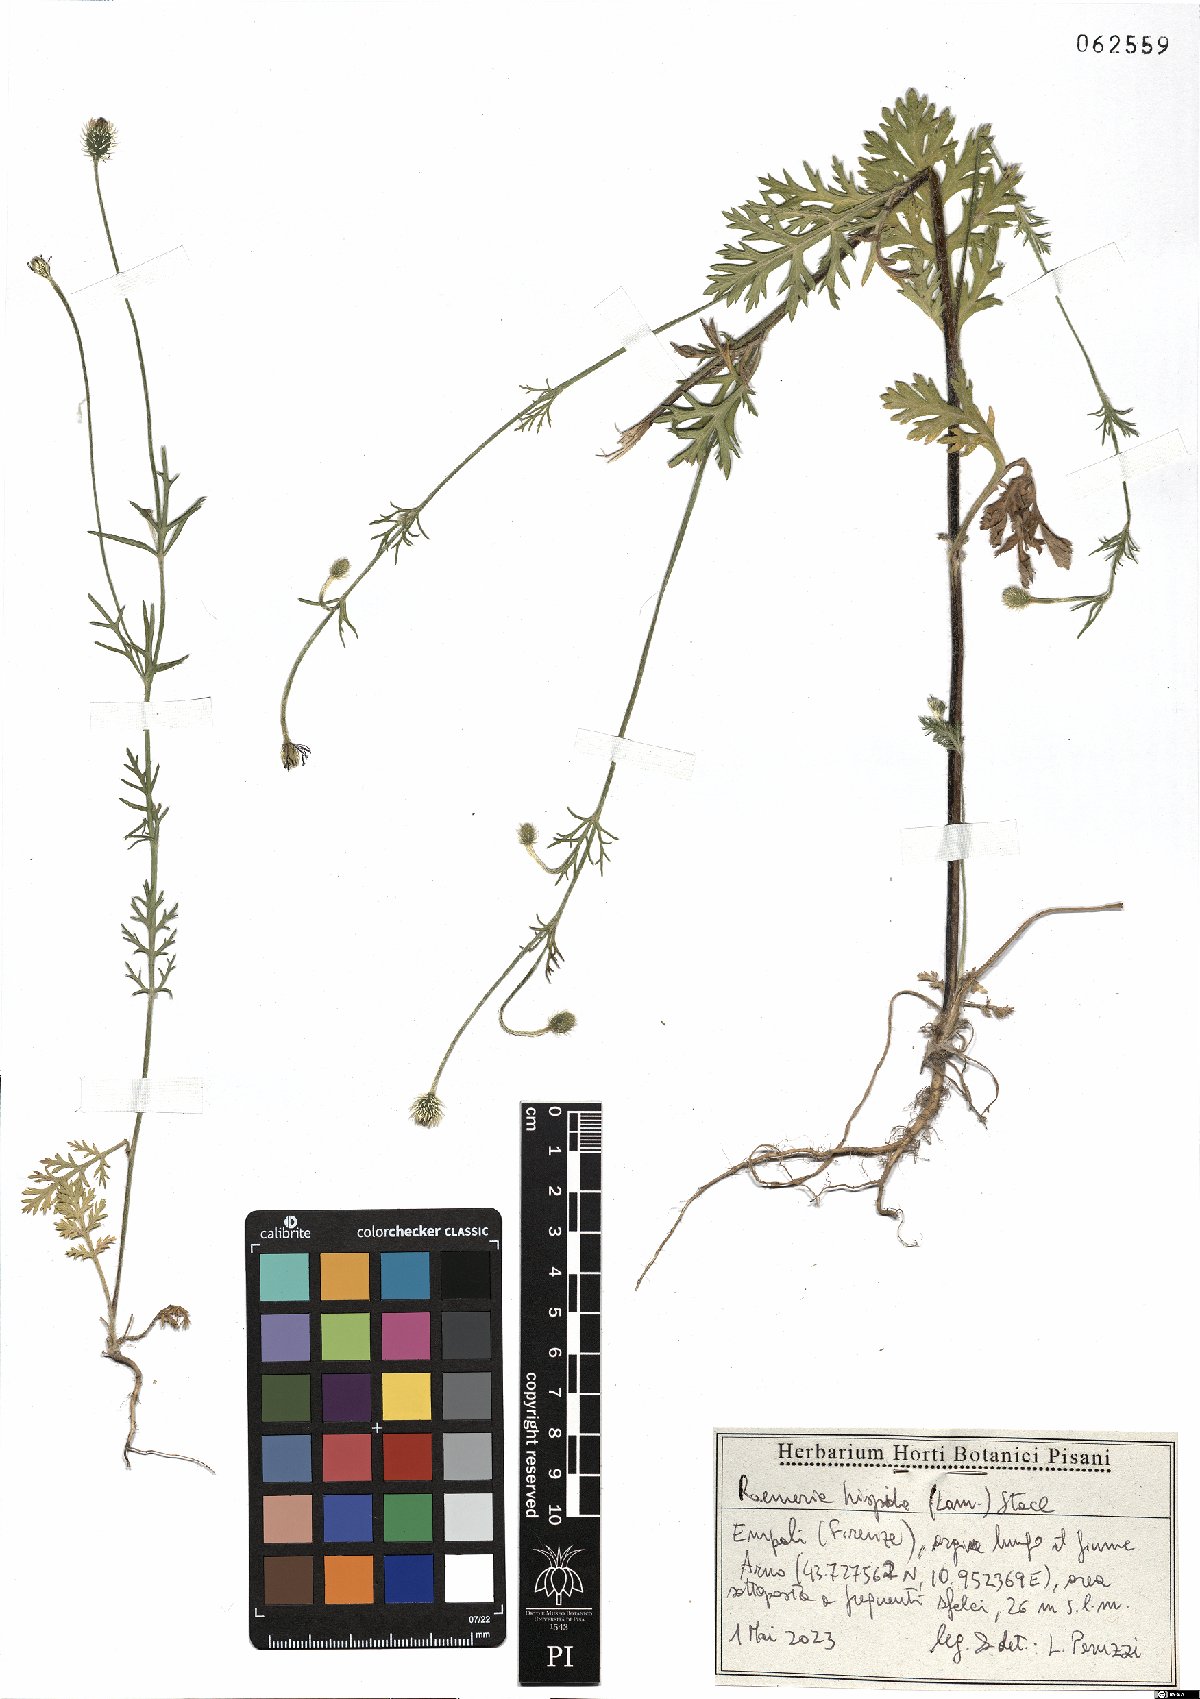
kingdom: Plantae
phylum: Tracheophyta
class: Magnoliopsida
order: Ranunculales
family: Papaveraceae
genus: Roemeria
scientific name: Roemeria hispida
